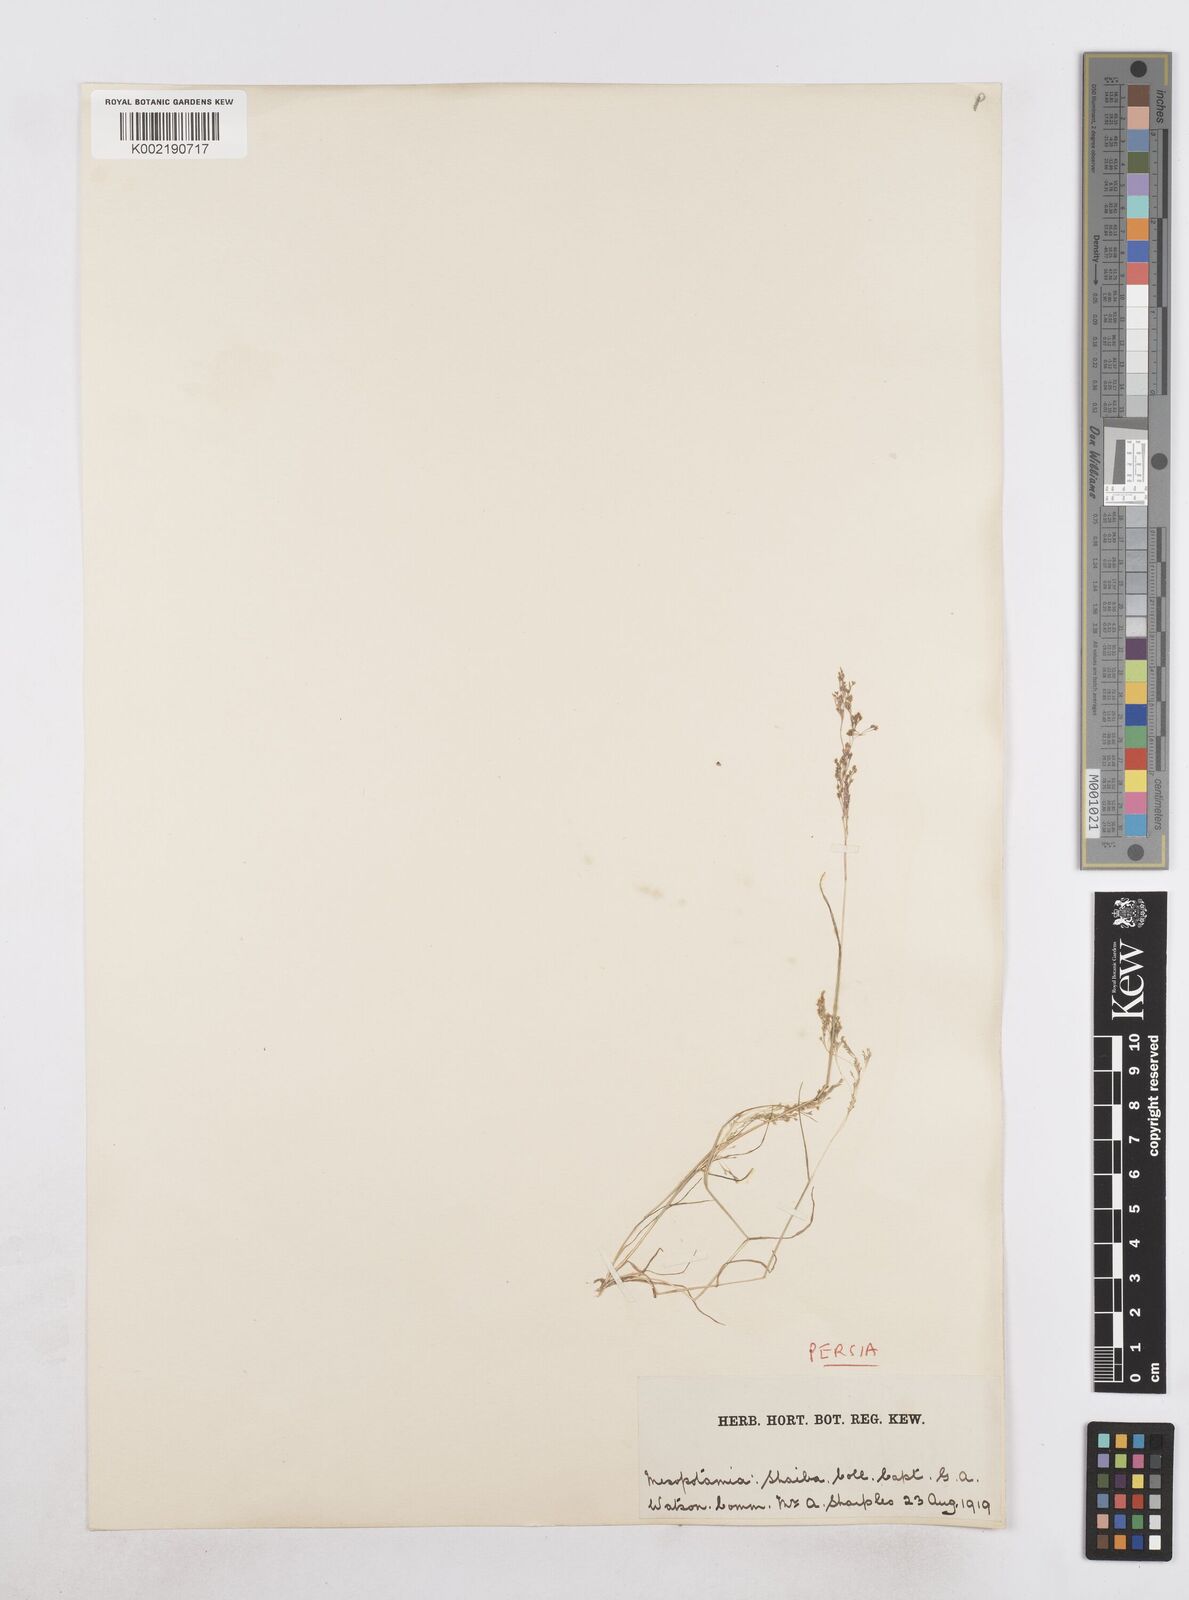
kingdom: Plantae
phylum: Tracheophyta
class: Liliopsida
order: Poales
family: Poaceae
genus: Sphenopus
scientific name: Sphenopus divaricatus
